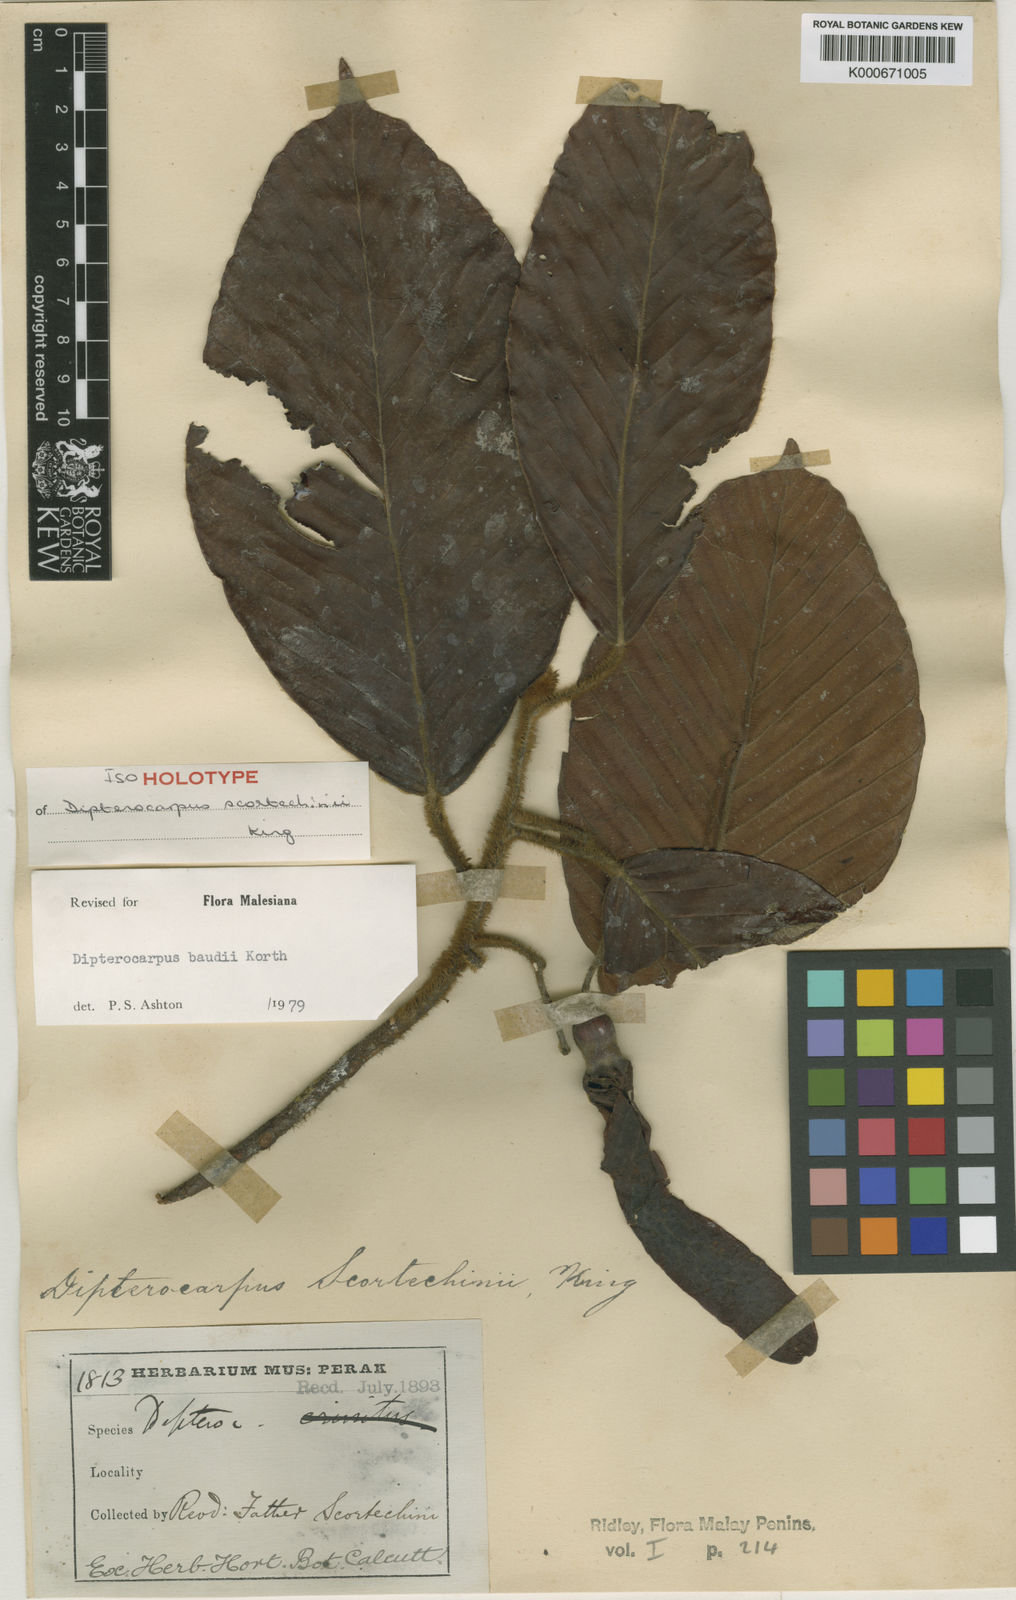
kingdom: Plantae
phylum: Tracheophyta
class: Magnoliopsida
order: Malvales
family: Dipterocarpaceae
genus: Dipterocarpus
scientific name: Dipterocarpus baudii
